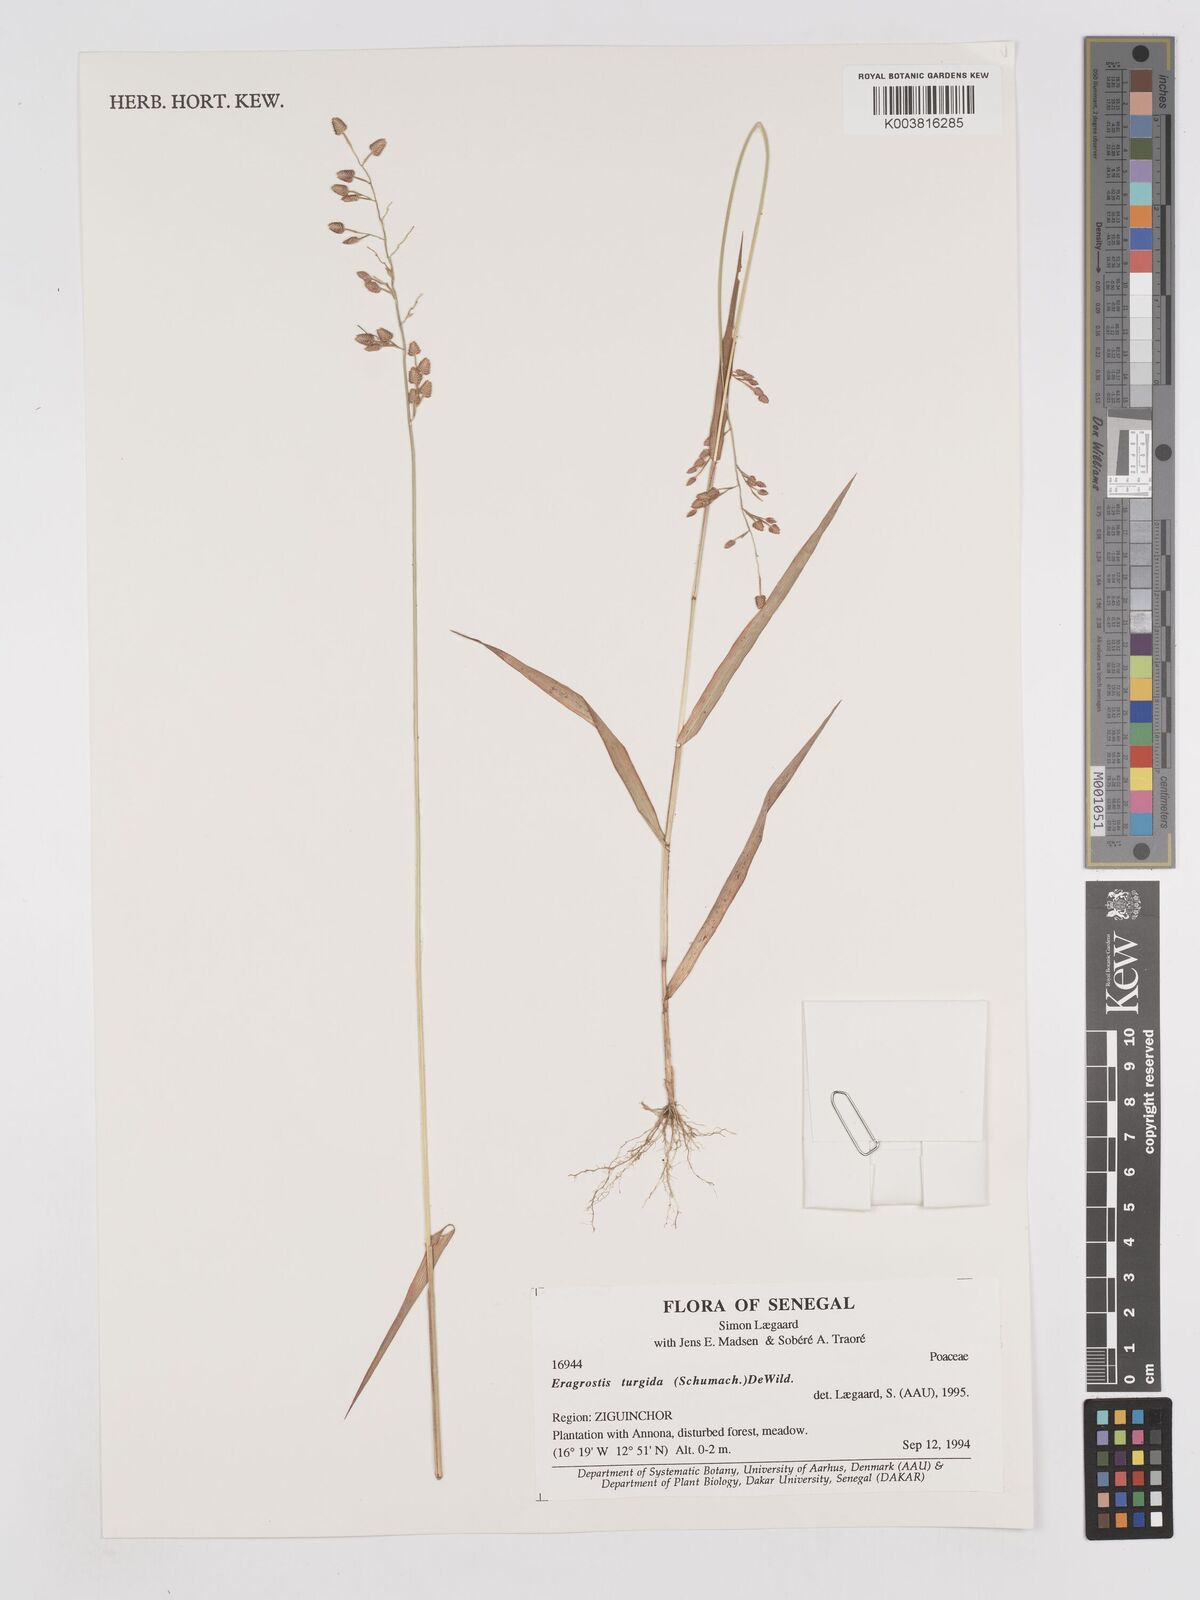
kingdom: Plantae
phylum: Tracheophyta
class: Liliopsida
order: Poales
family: Poaceae
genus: Eragrostis
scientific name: Eragrostis turgida
